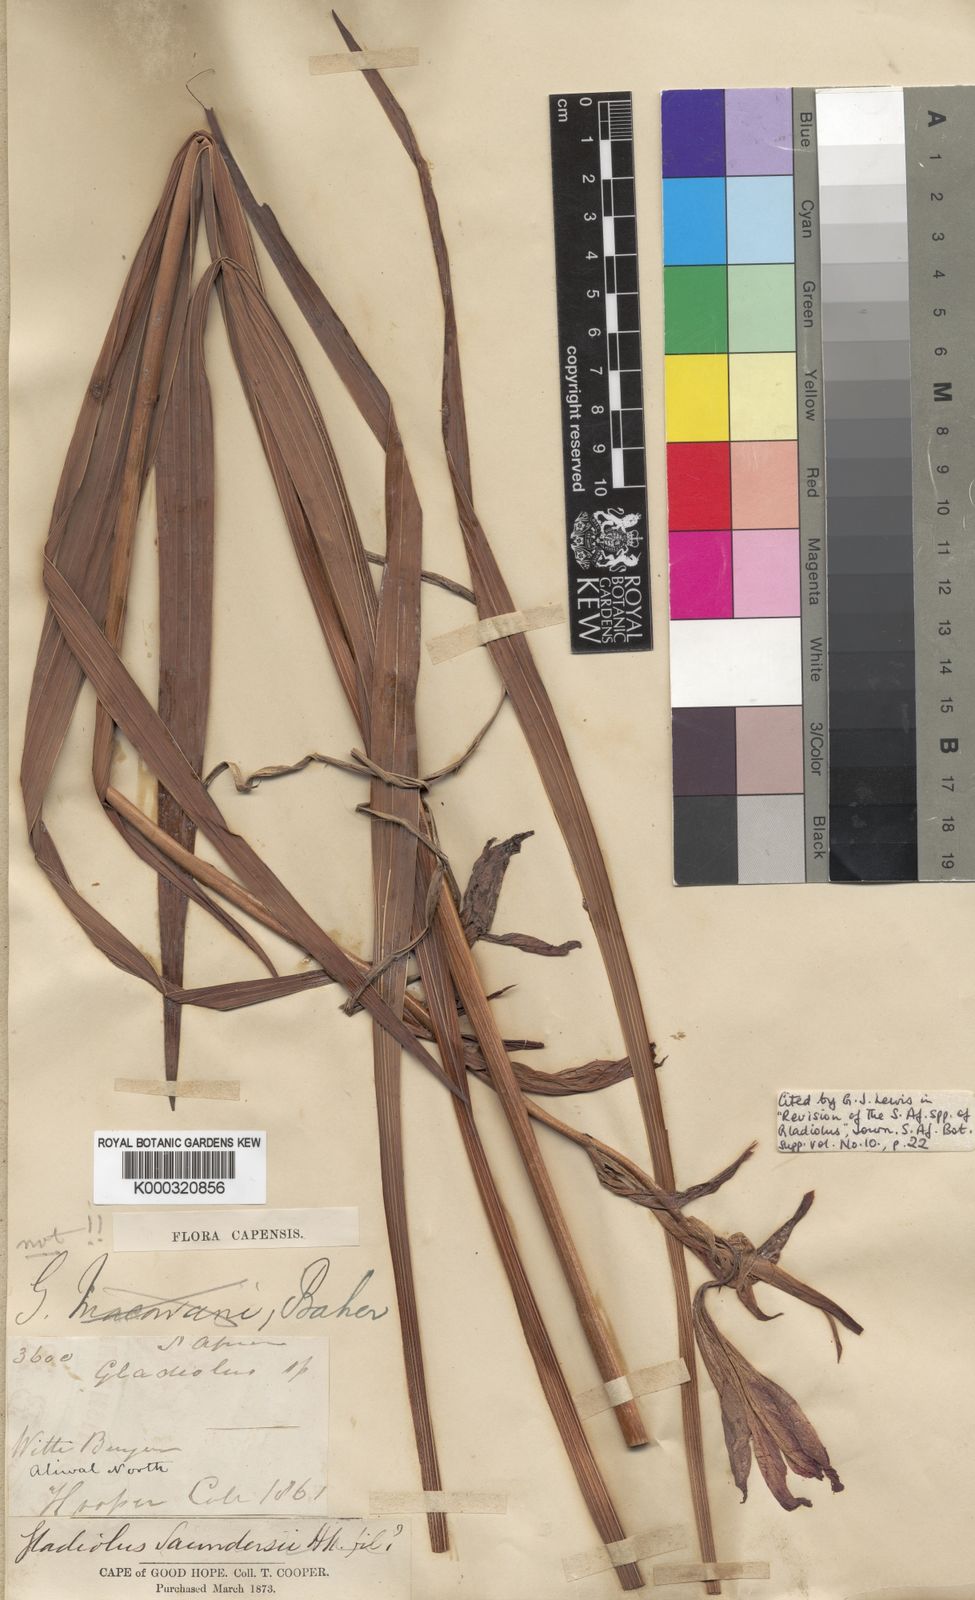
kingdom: Plantae
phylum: Tracheophyta
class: Liliopsida
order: Asparagales
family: Iridaceae
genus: Gladiolus
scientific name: Gladiolus saundersii
